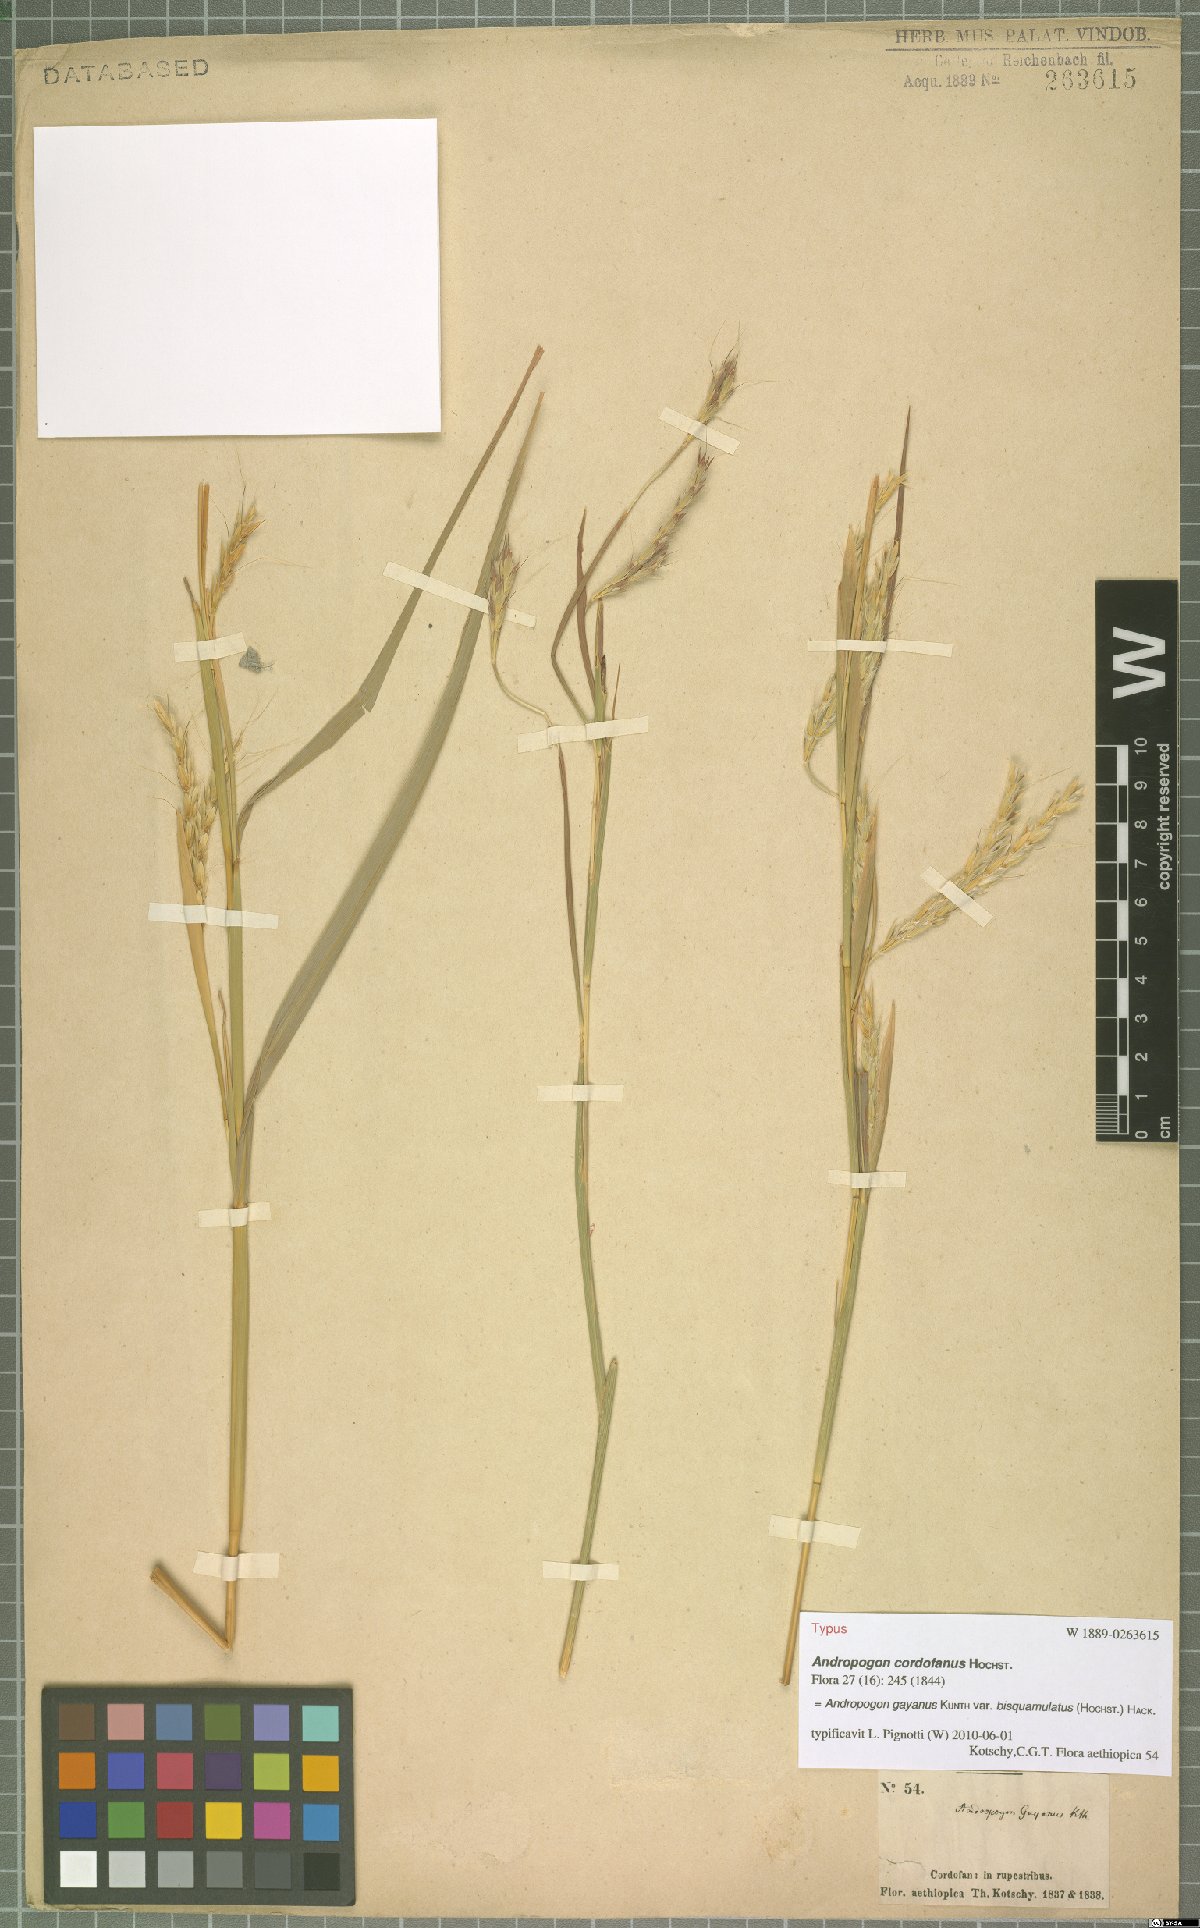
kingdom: Plantae
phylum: Tracheophyta
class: Liliopsida
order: Poales
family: Poaceae
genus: Andropogon
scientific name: Andropogon gayanus
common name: Tambuki grass
